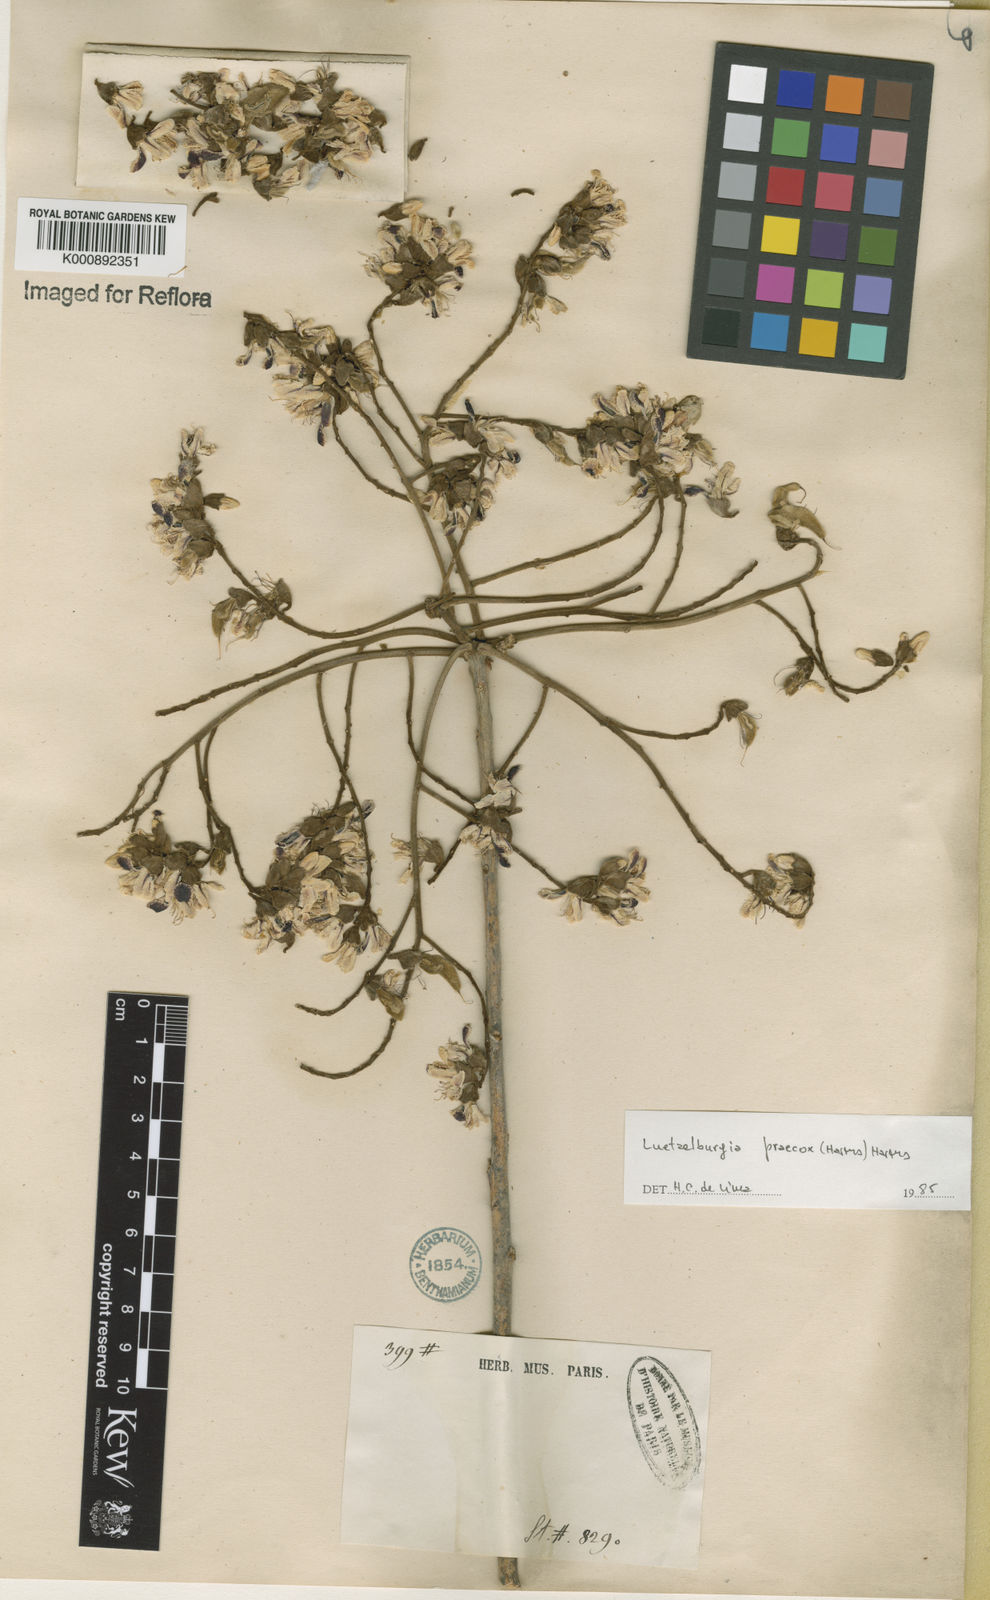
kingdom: Plantae
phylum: Tracheophyta
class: Magnoliopsida
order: Fabales
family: Fabaceae
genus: Luetzelburgia
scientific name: Luetzelburgia praecox
